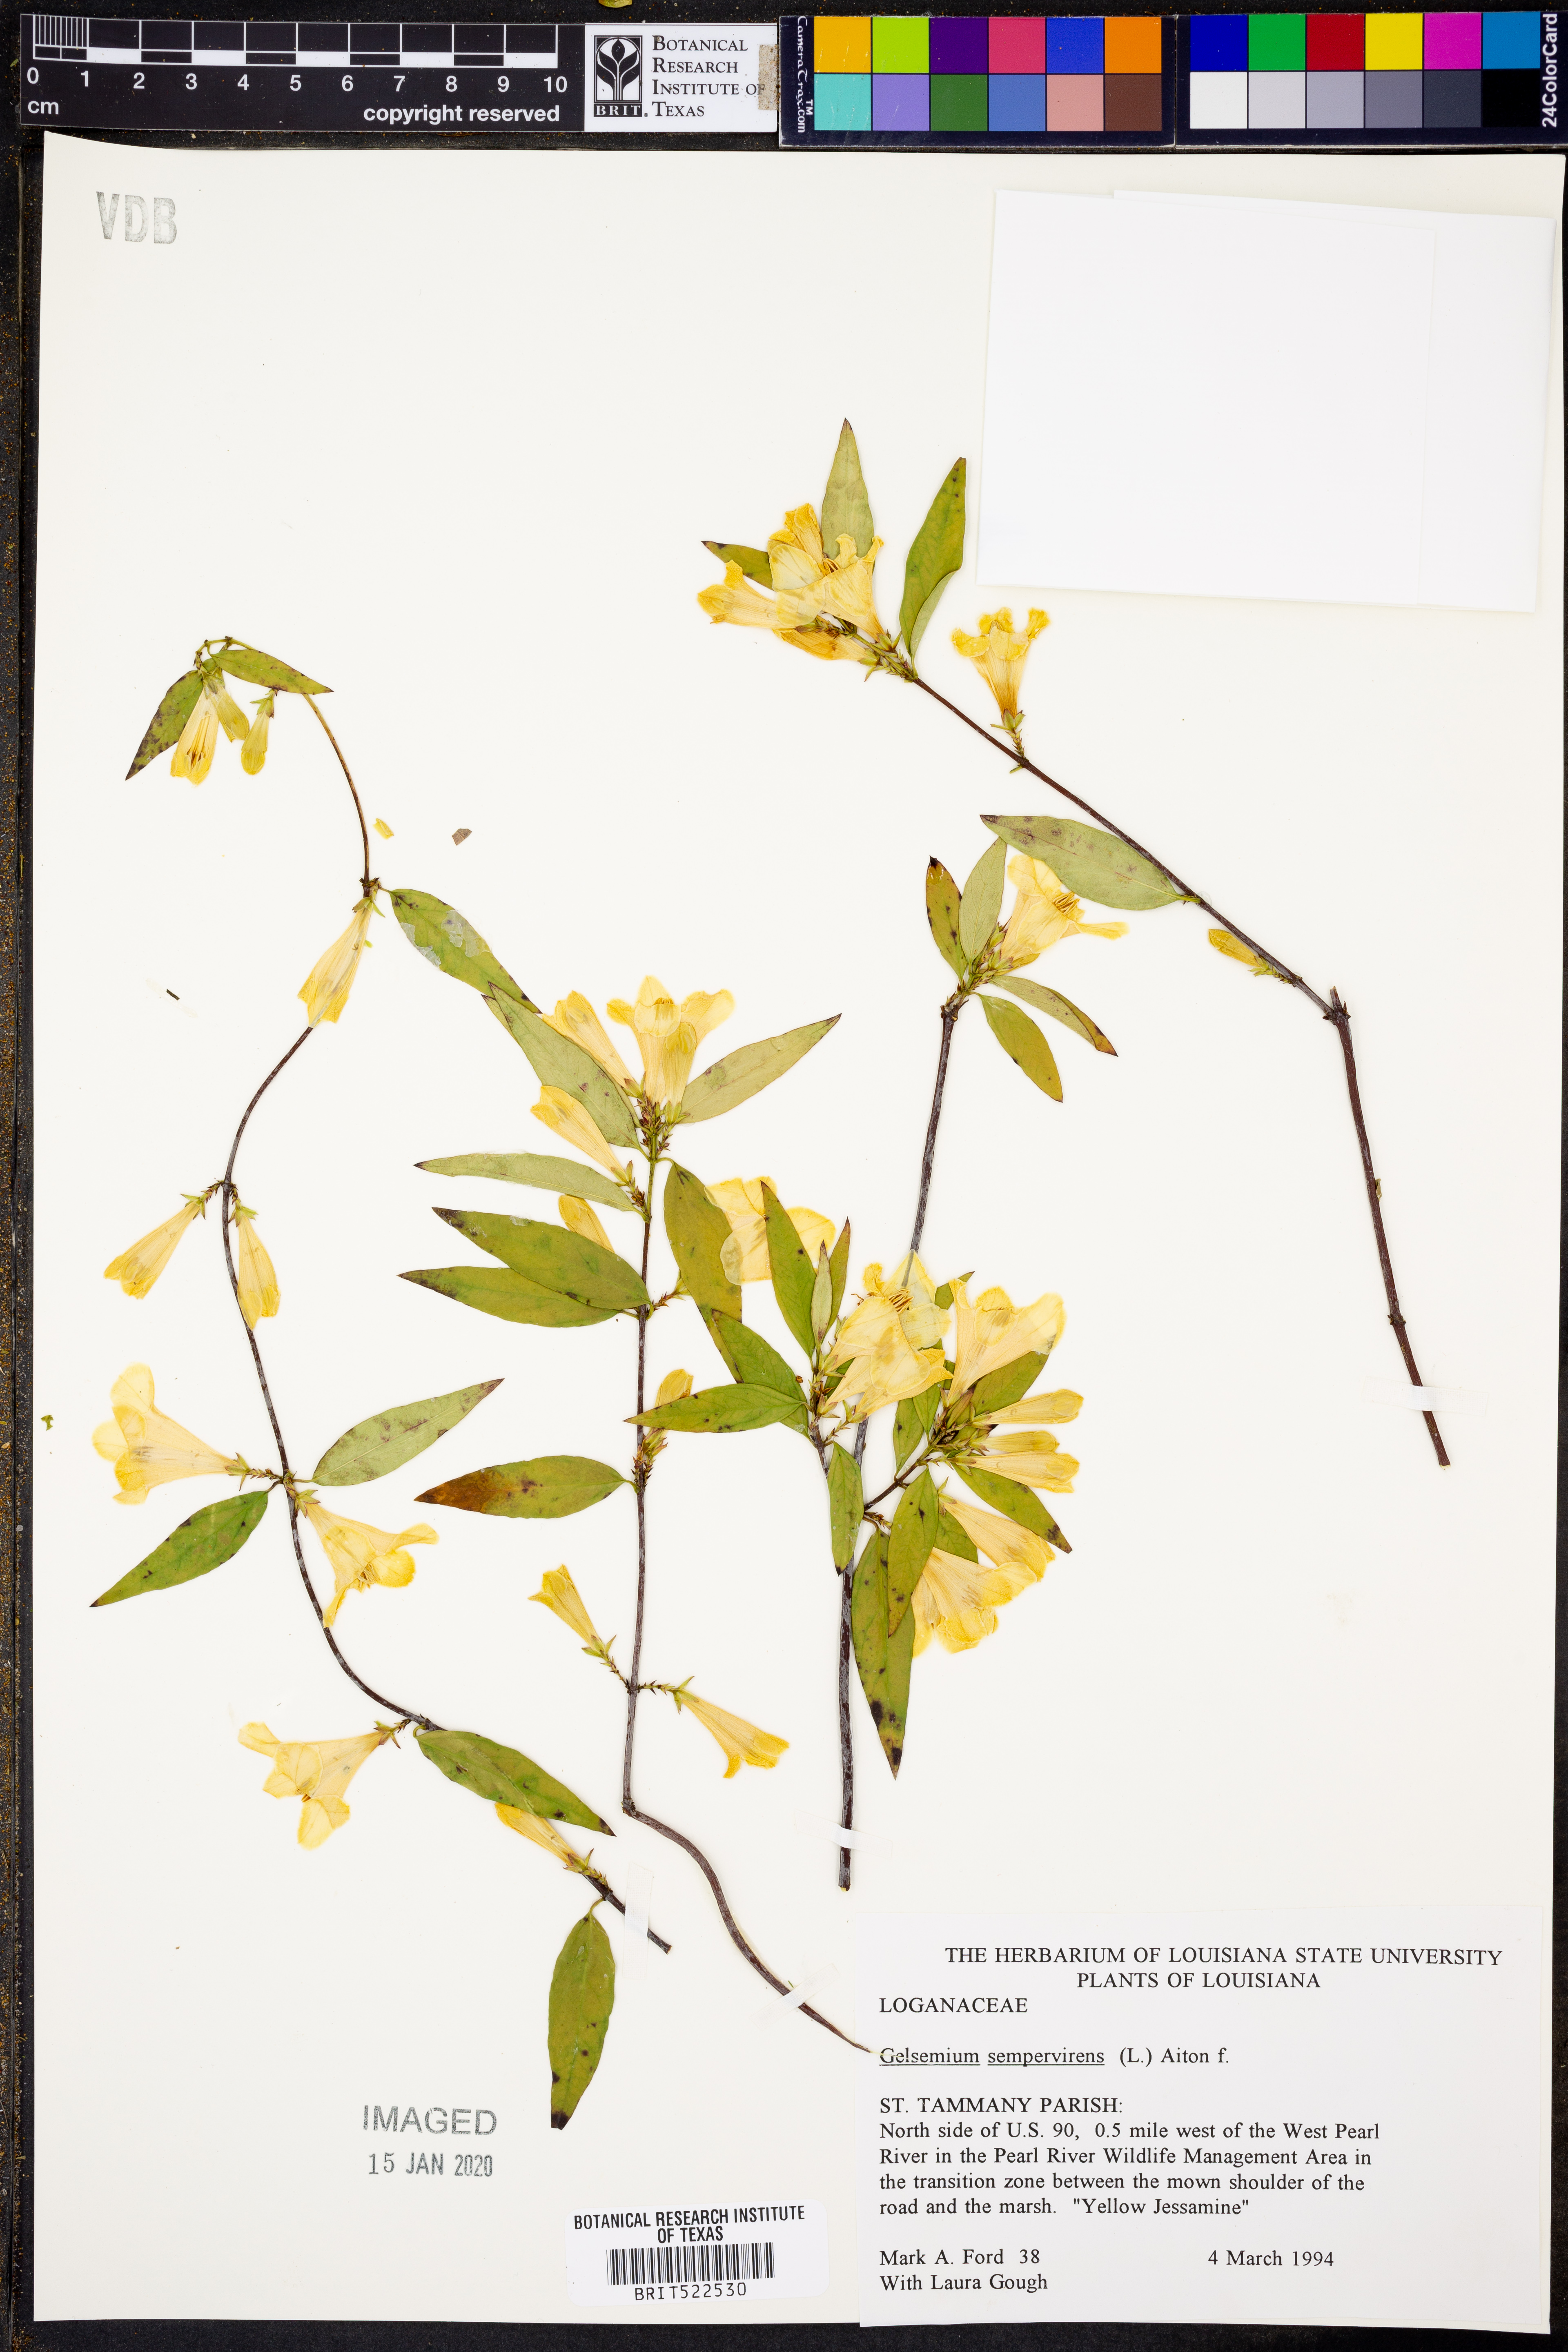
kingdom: Plantae
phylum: Tracheophyta
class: Magnoliopsida
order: Gentianales
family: Gelsemiaceae
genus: Gelsemium
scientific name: Gelsemium sempervirens
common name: Carolina-jasmine
